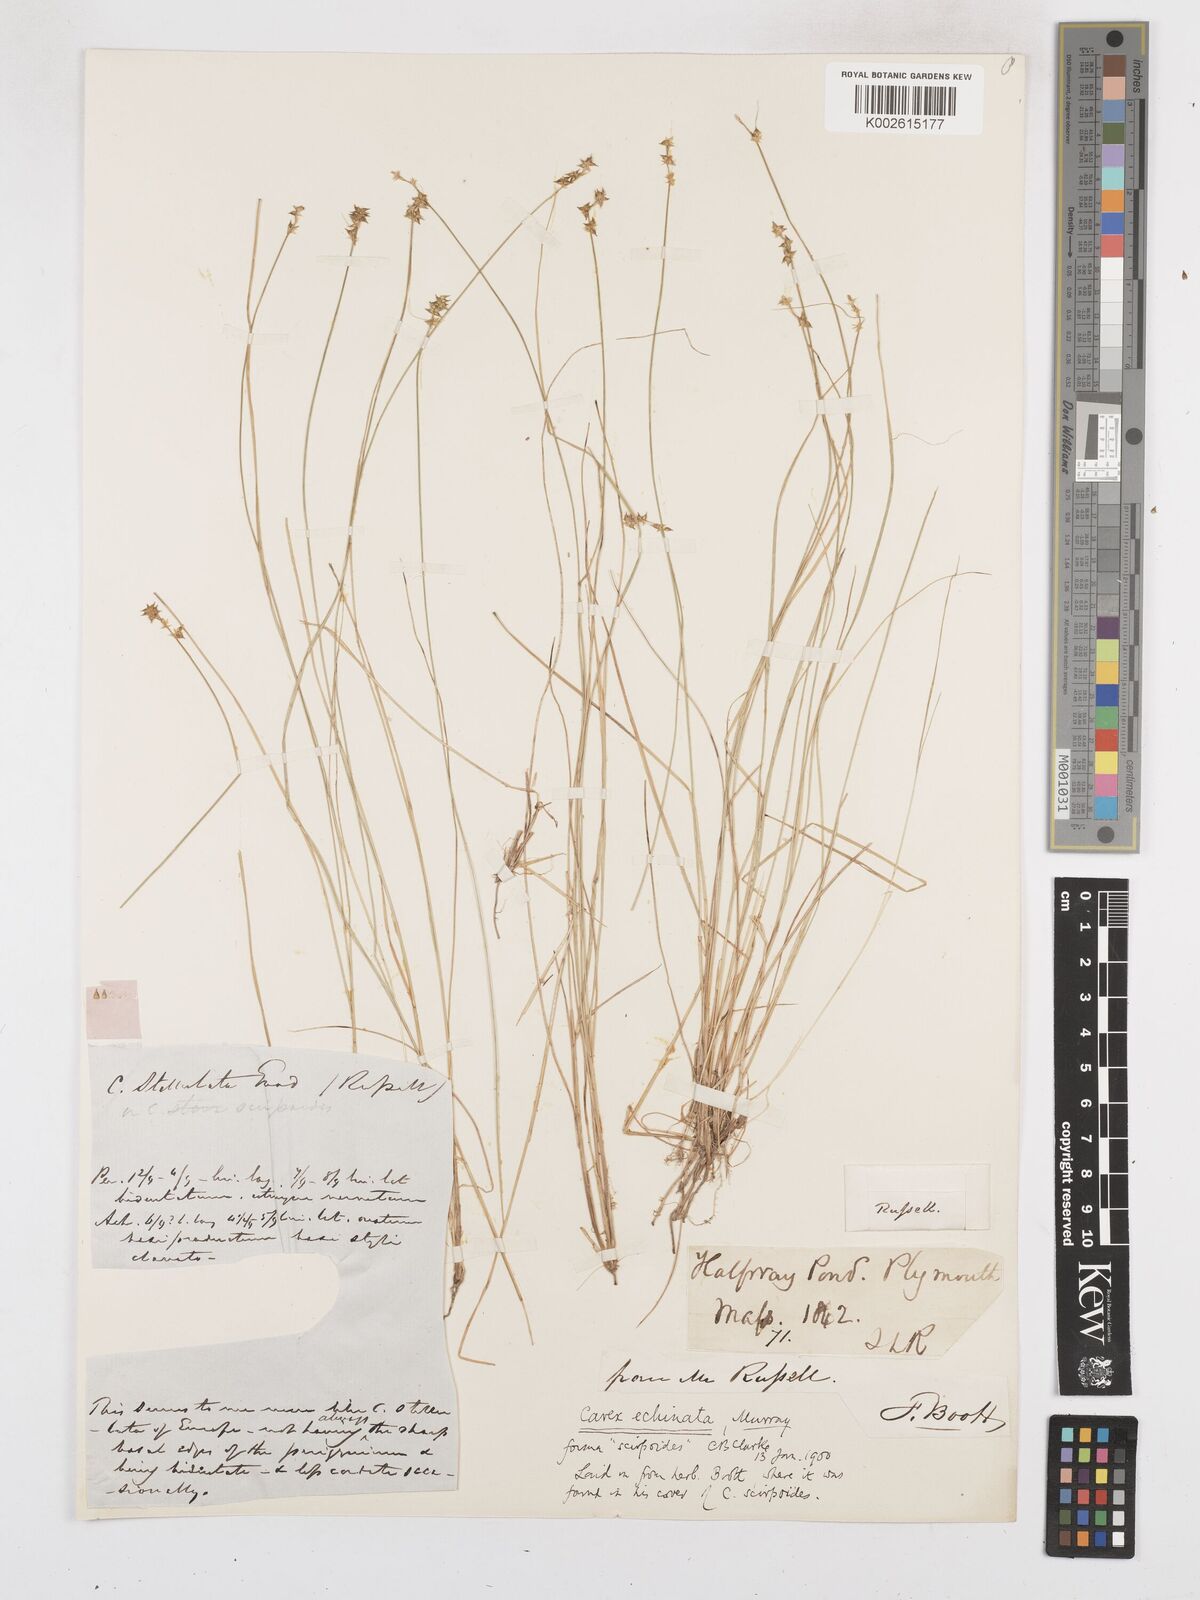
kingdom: Plantae
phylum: Tracheophyta
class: Liliopsida
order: Poales
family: Cyperaceae
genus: Carex
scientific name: Carex echinata
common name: Star sedge
